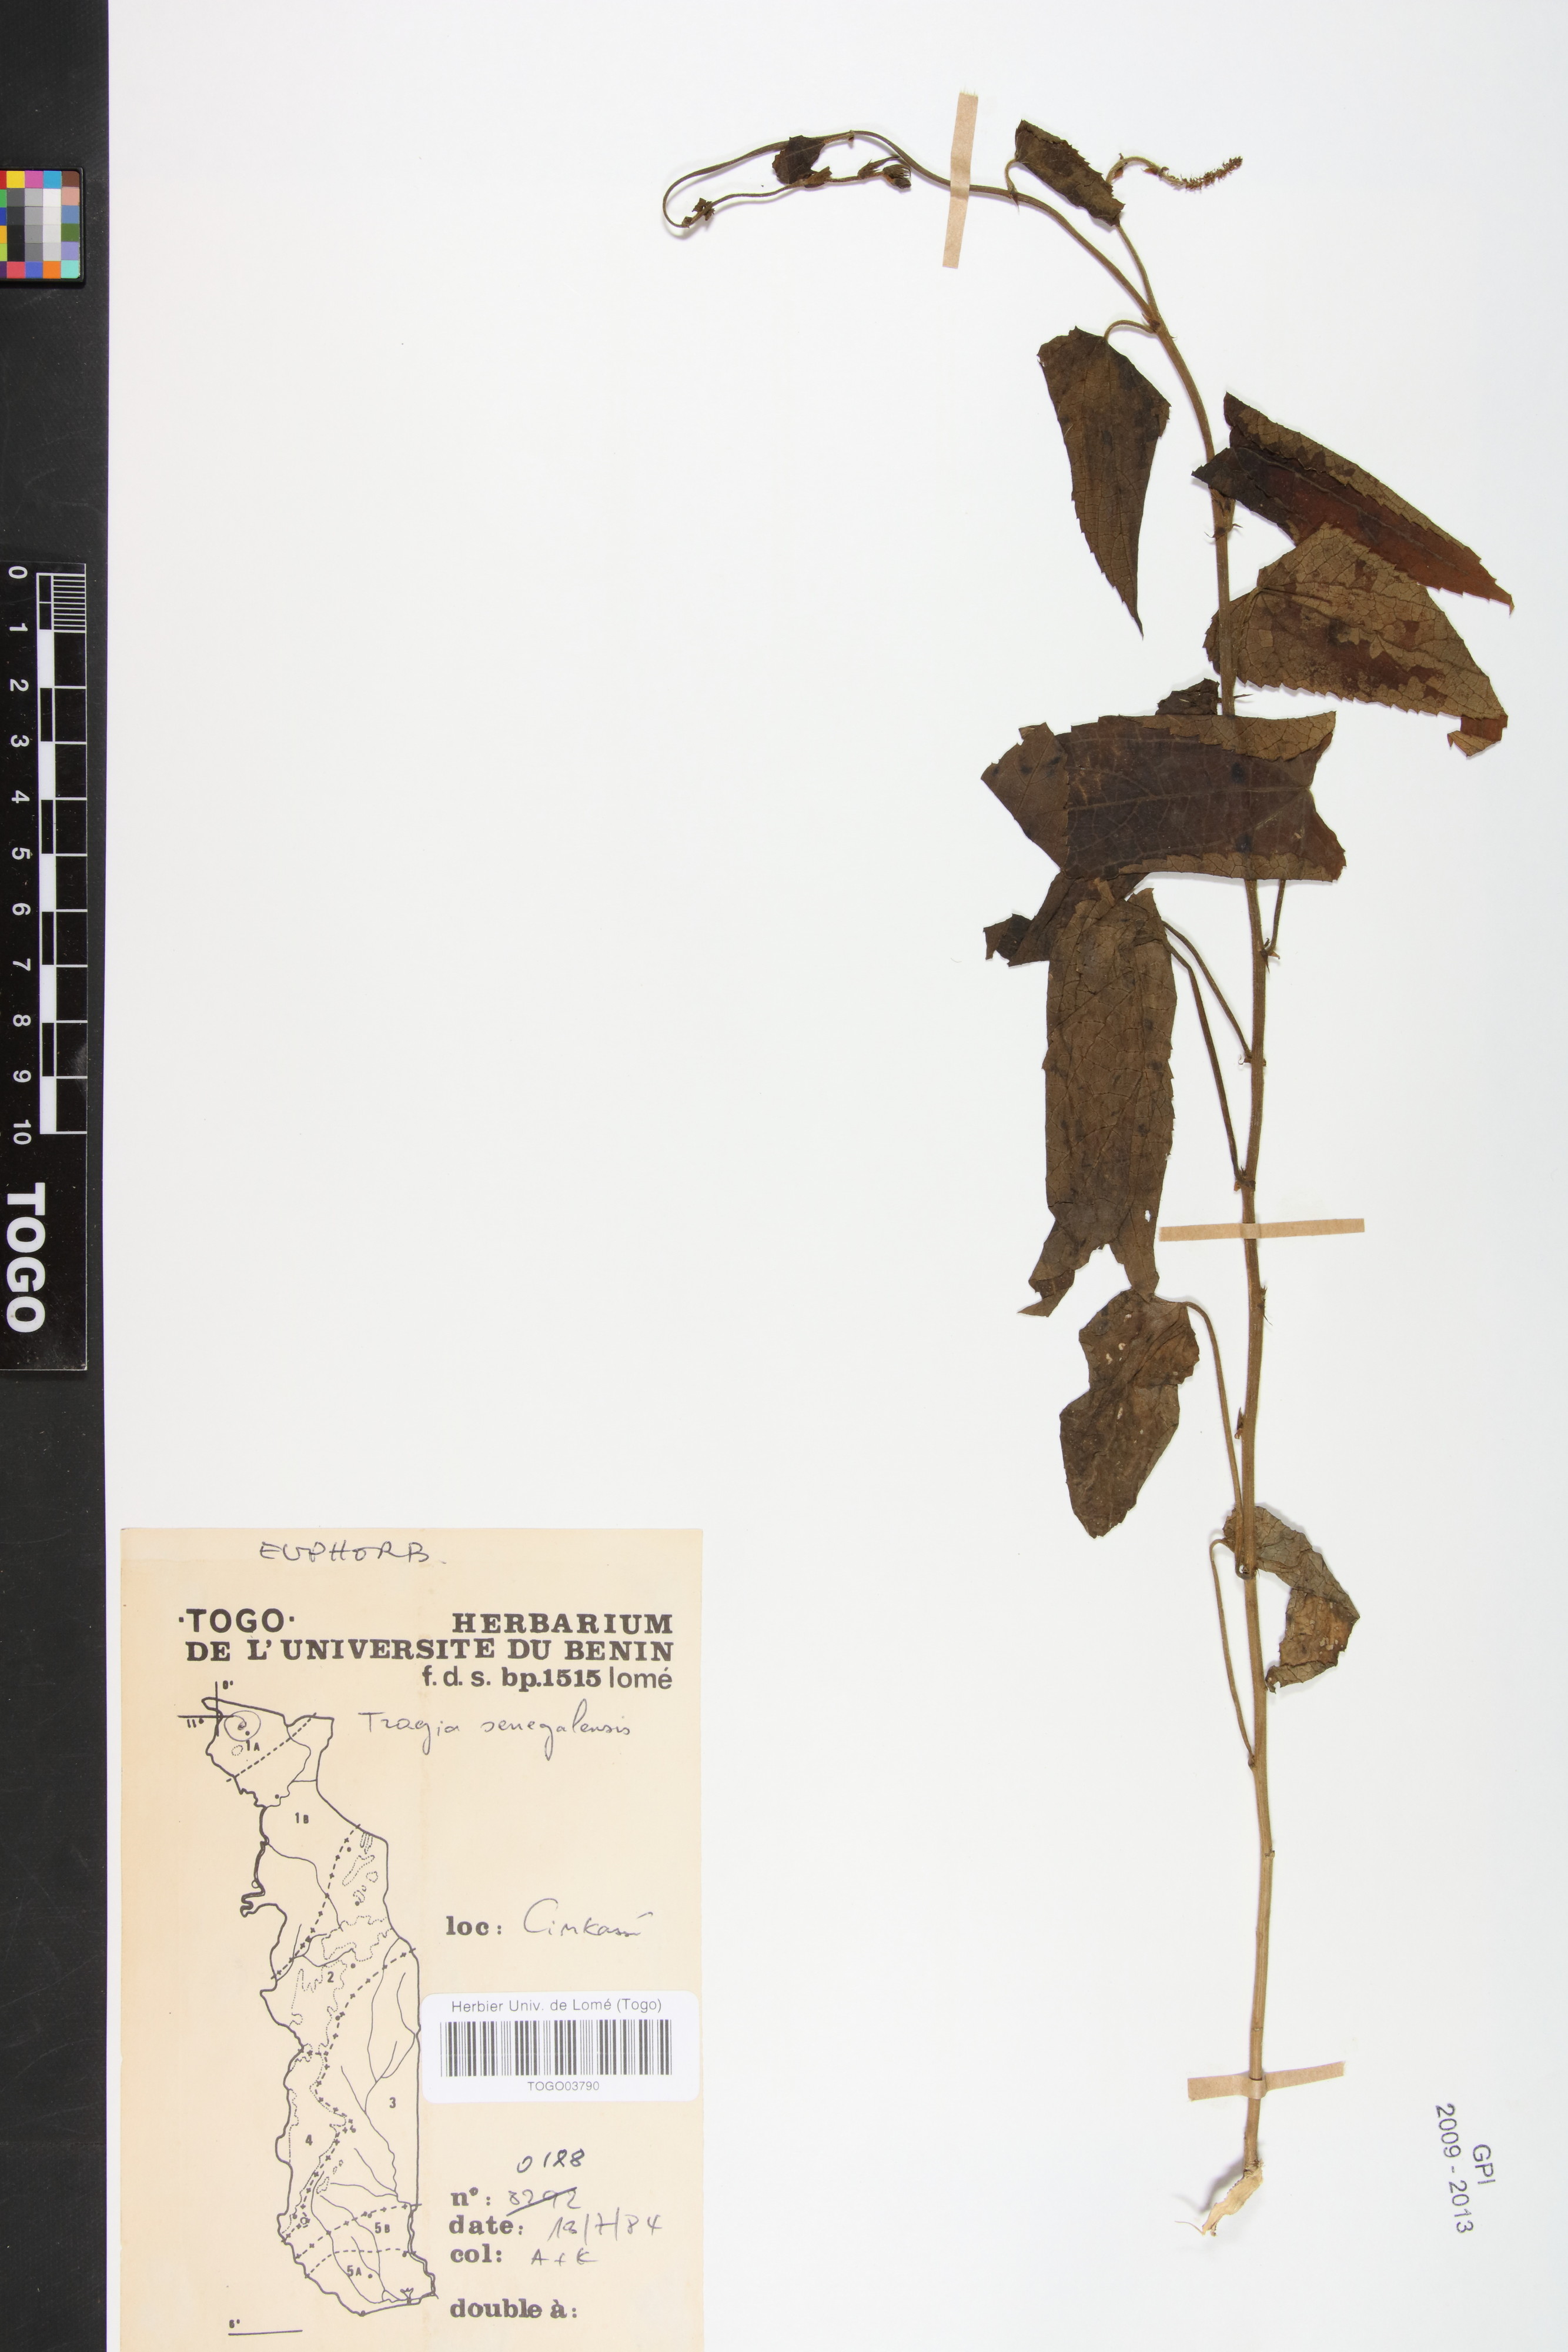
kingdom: Plantae
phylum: Tracheophyta
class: Magnoliopsida
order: Malpighiales
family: Euphorbiaceae
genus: Tragia
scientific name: Tragia senegalensis
